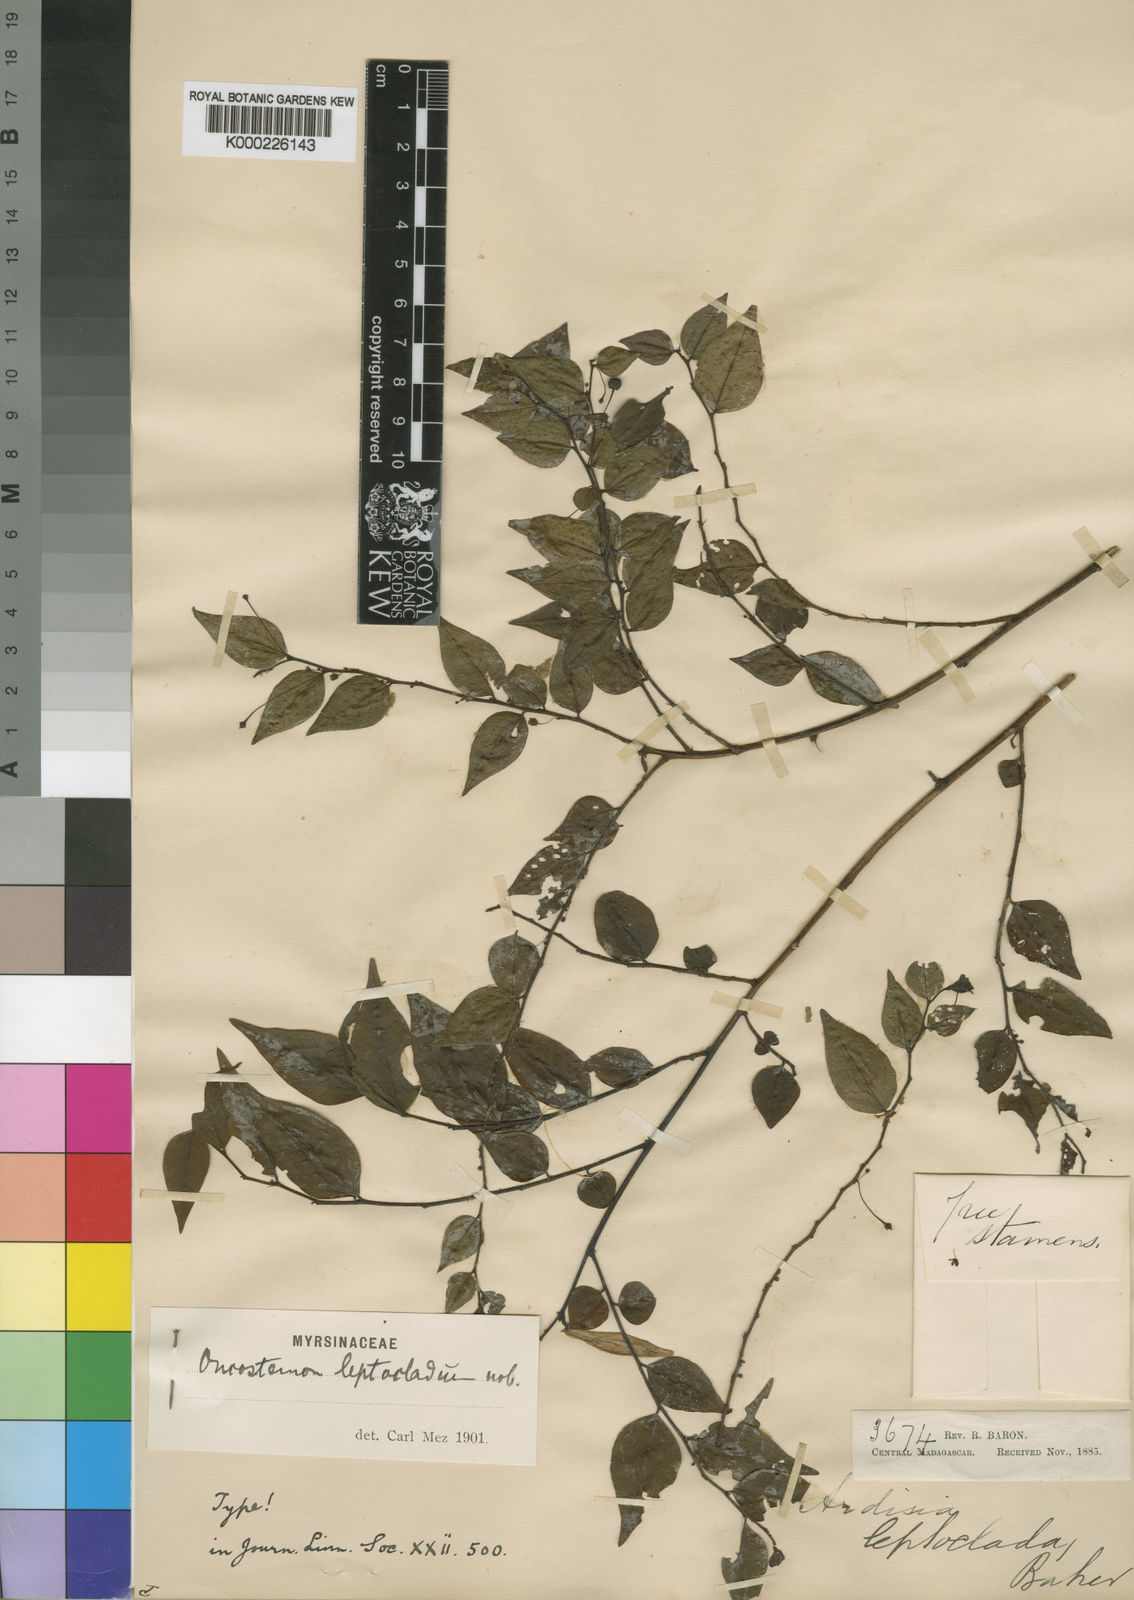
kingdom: Plantae
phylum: Tracheophyta
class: Magnoliopsida
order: Ericales
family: Primulaceae
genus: Oncostemum
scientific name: Oncostemum leptocladum
